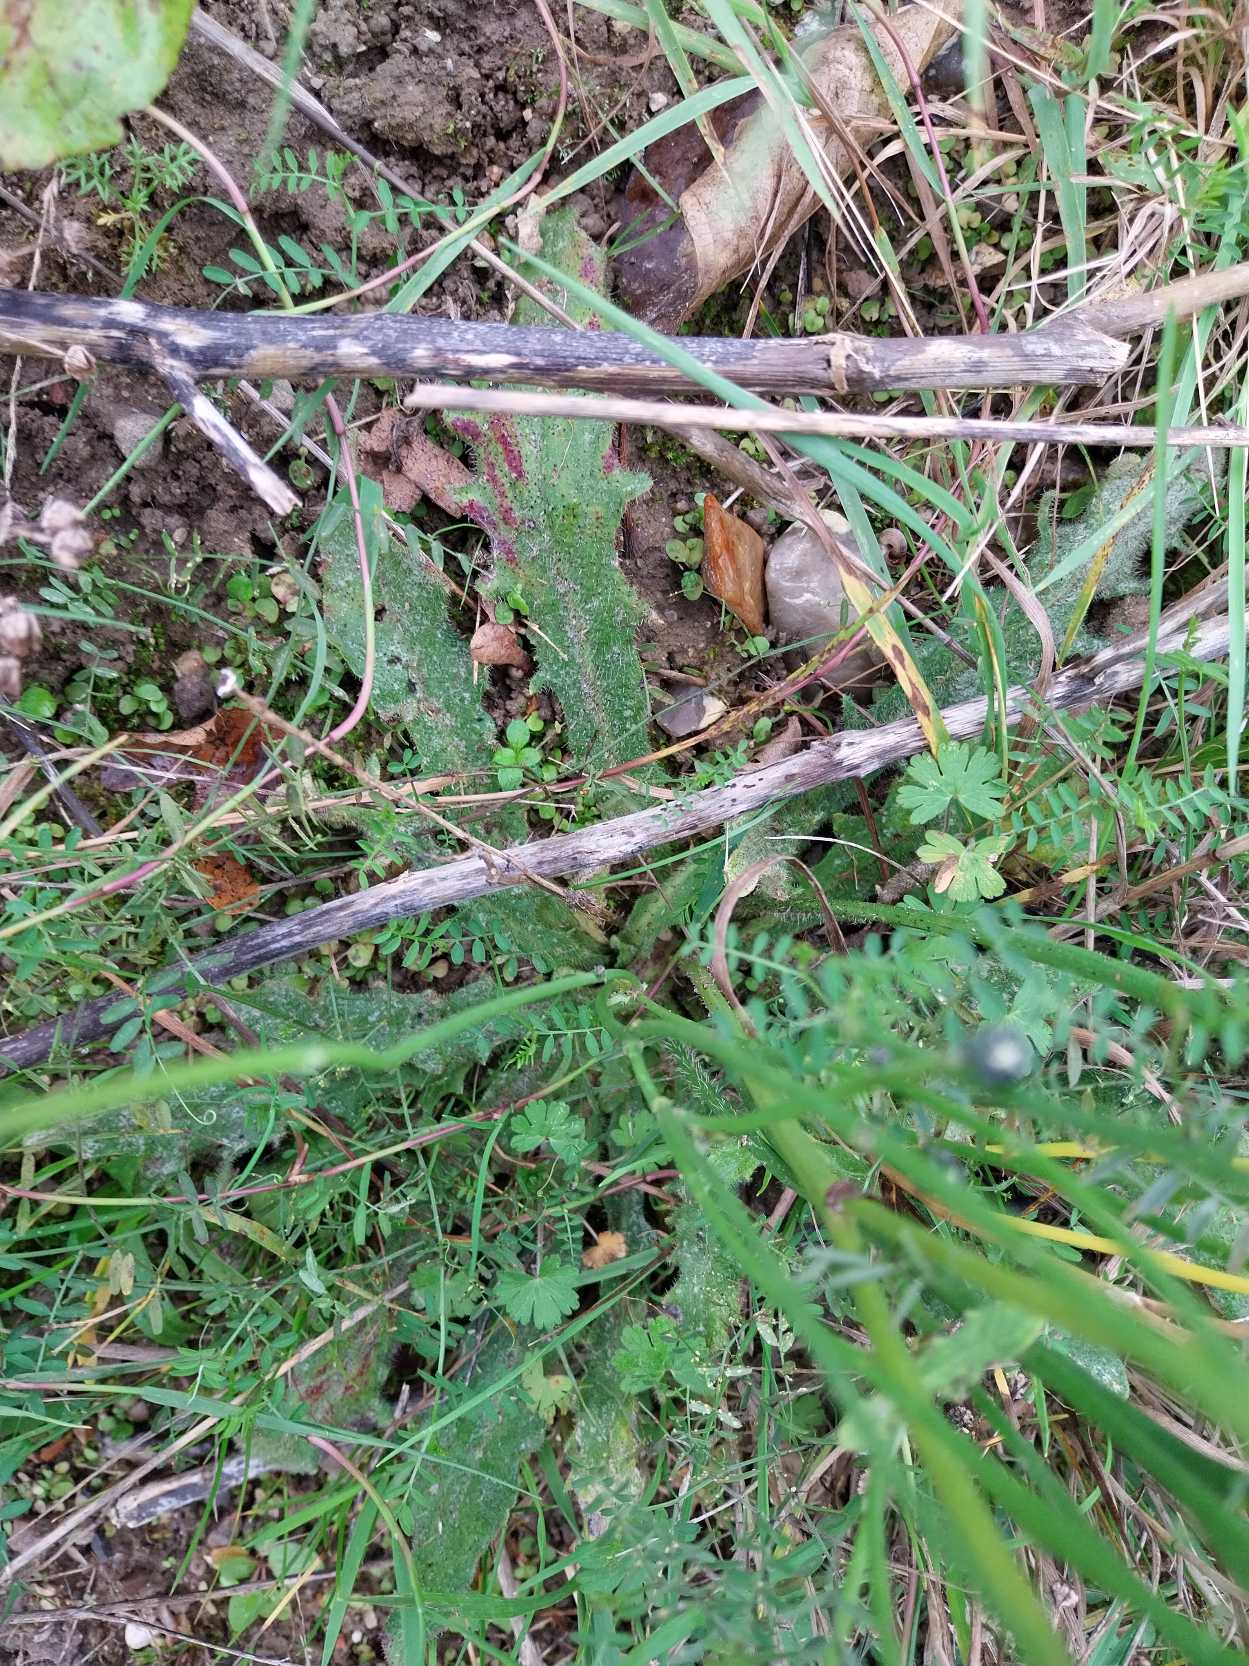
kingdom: Plantae
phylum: Tracheophyta
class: Magnoliopsida
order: Asterales
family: Asteraceae
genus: Hypochaeris
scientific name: Hypochaeris radicata
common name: Almindelig kongepen
